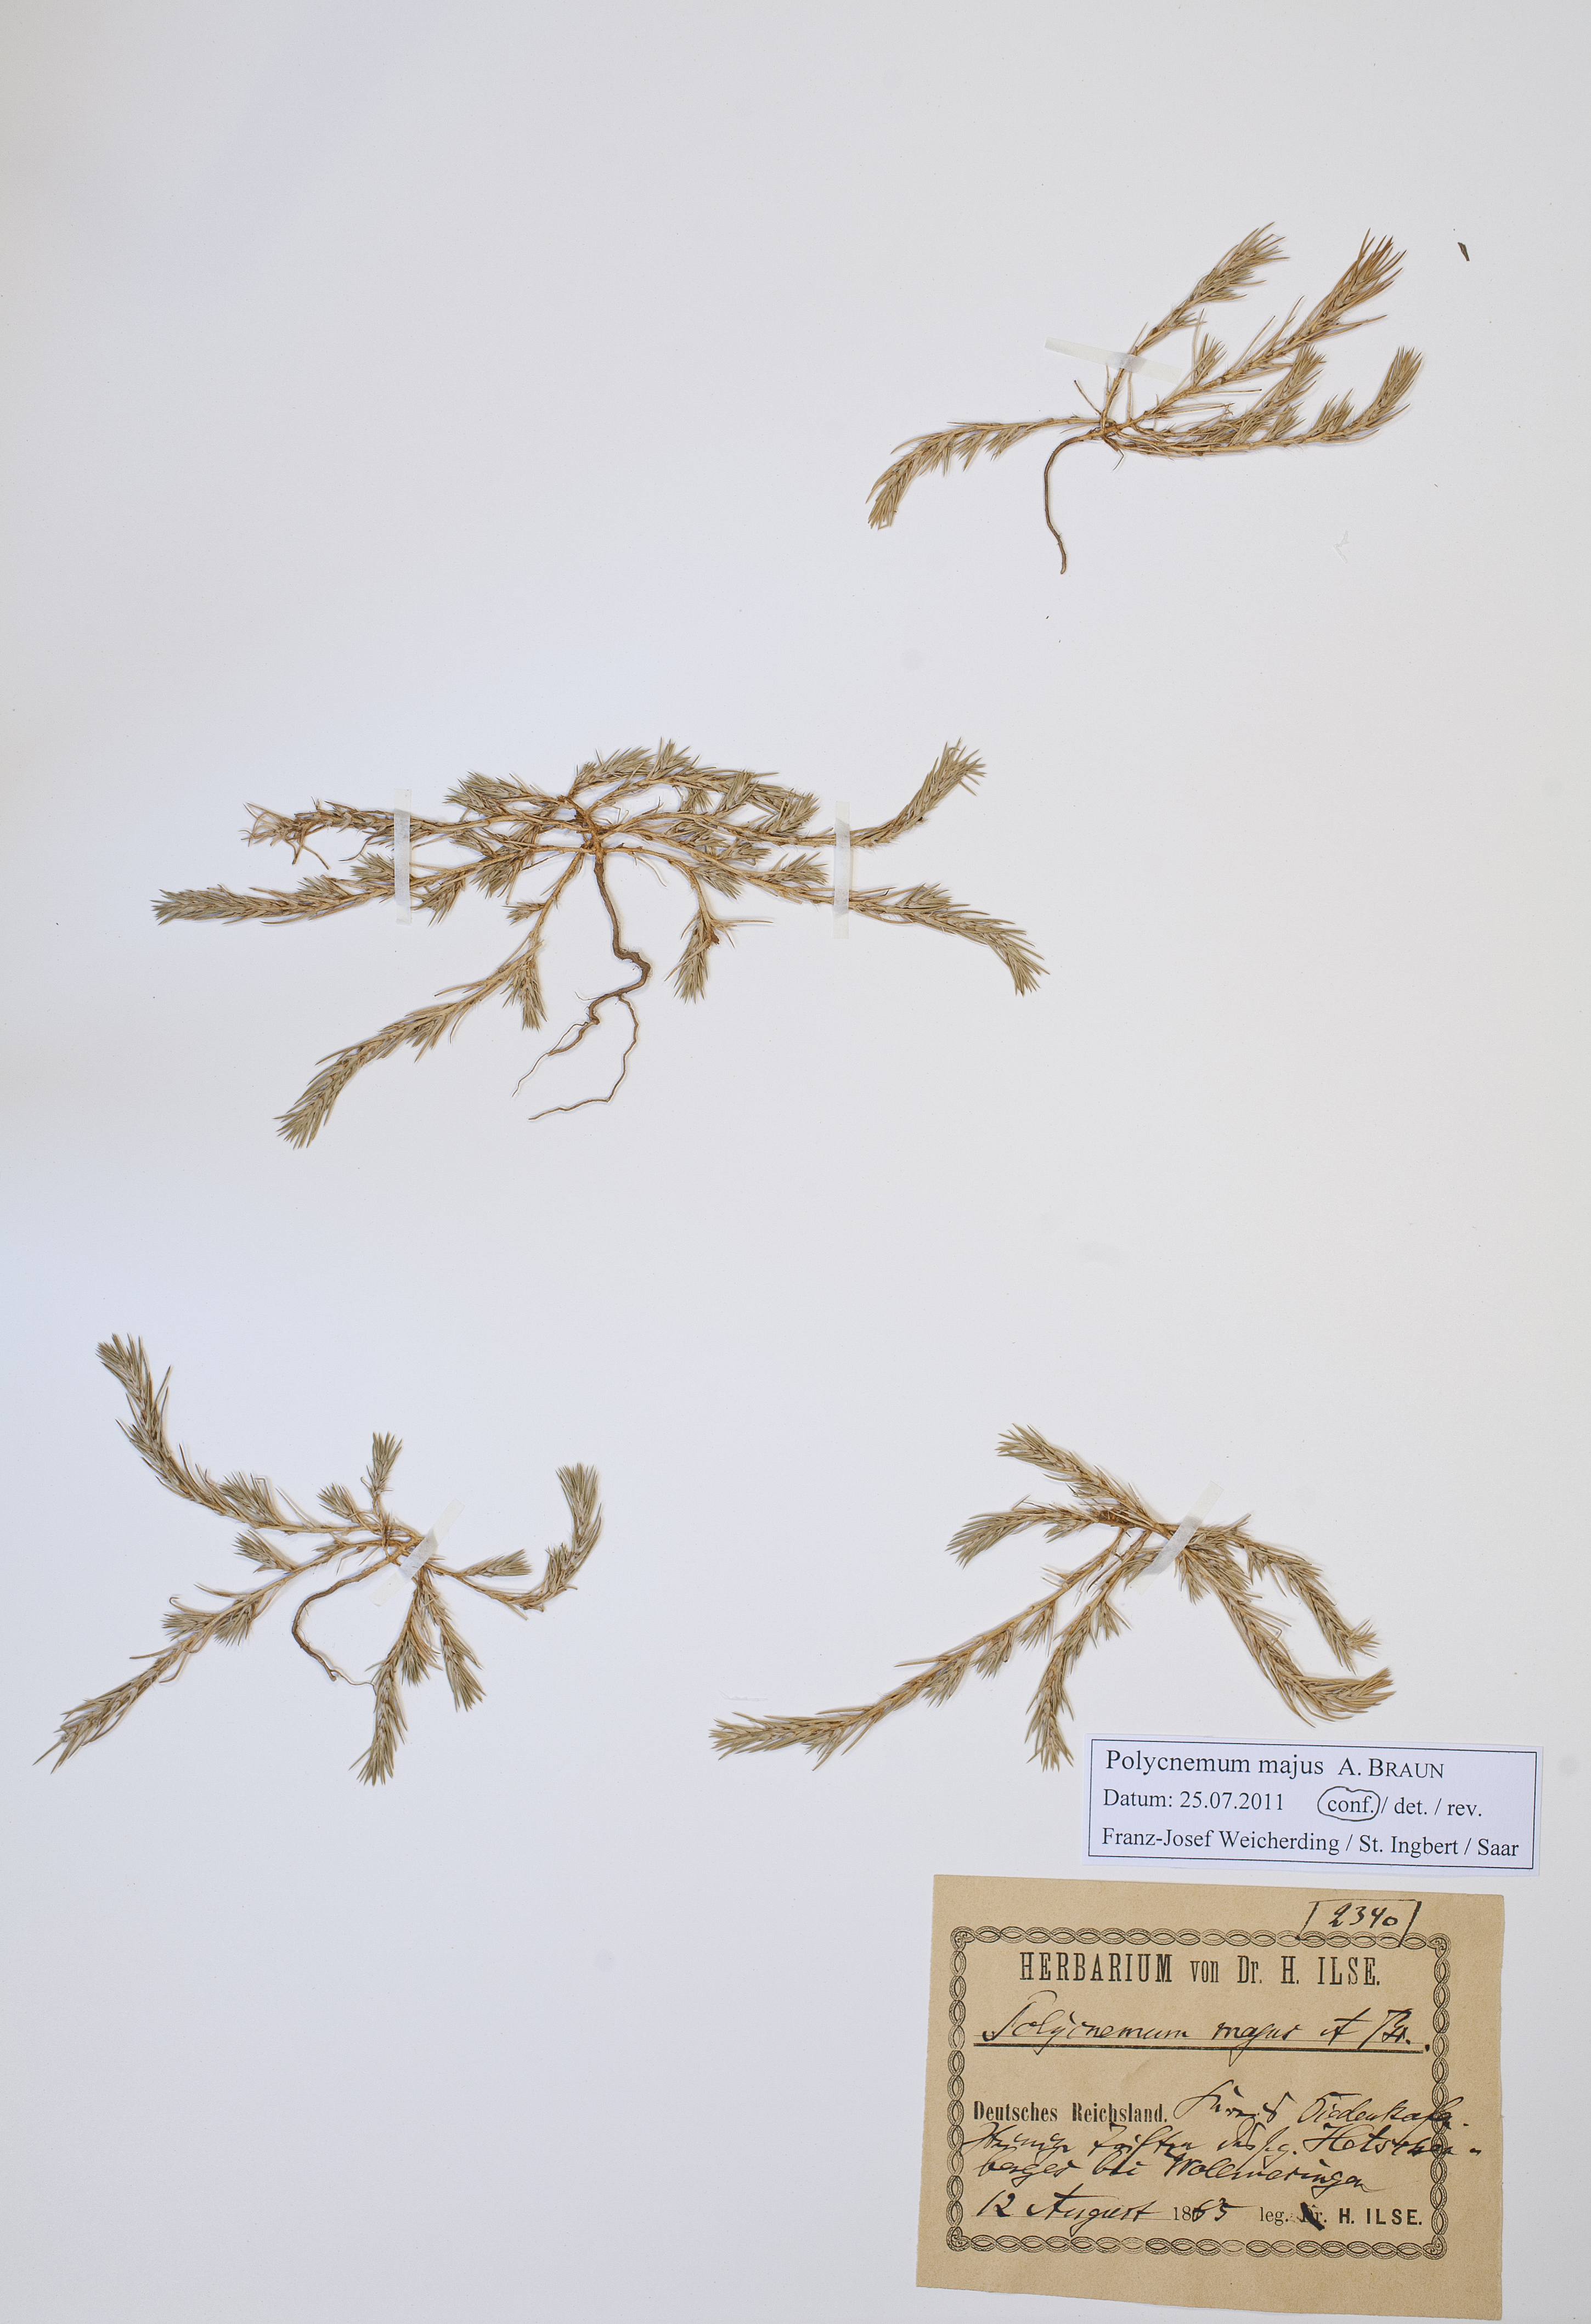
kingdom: Plantae
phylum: Tracheophyta
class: Magnoliopsida
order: Caryophyllales
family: Amaranthaceae
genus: Polycnemum
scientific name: Polycnemum majus
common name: Giant needleleaf
